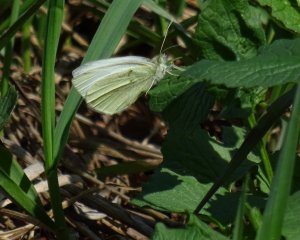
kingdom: Animalia
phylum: Arthropoda
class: Insecta
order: Lepidoptera
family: Pieridae
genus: Pieris
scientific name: Pieris rapae
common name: Cabbage White
